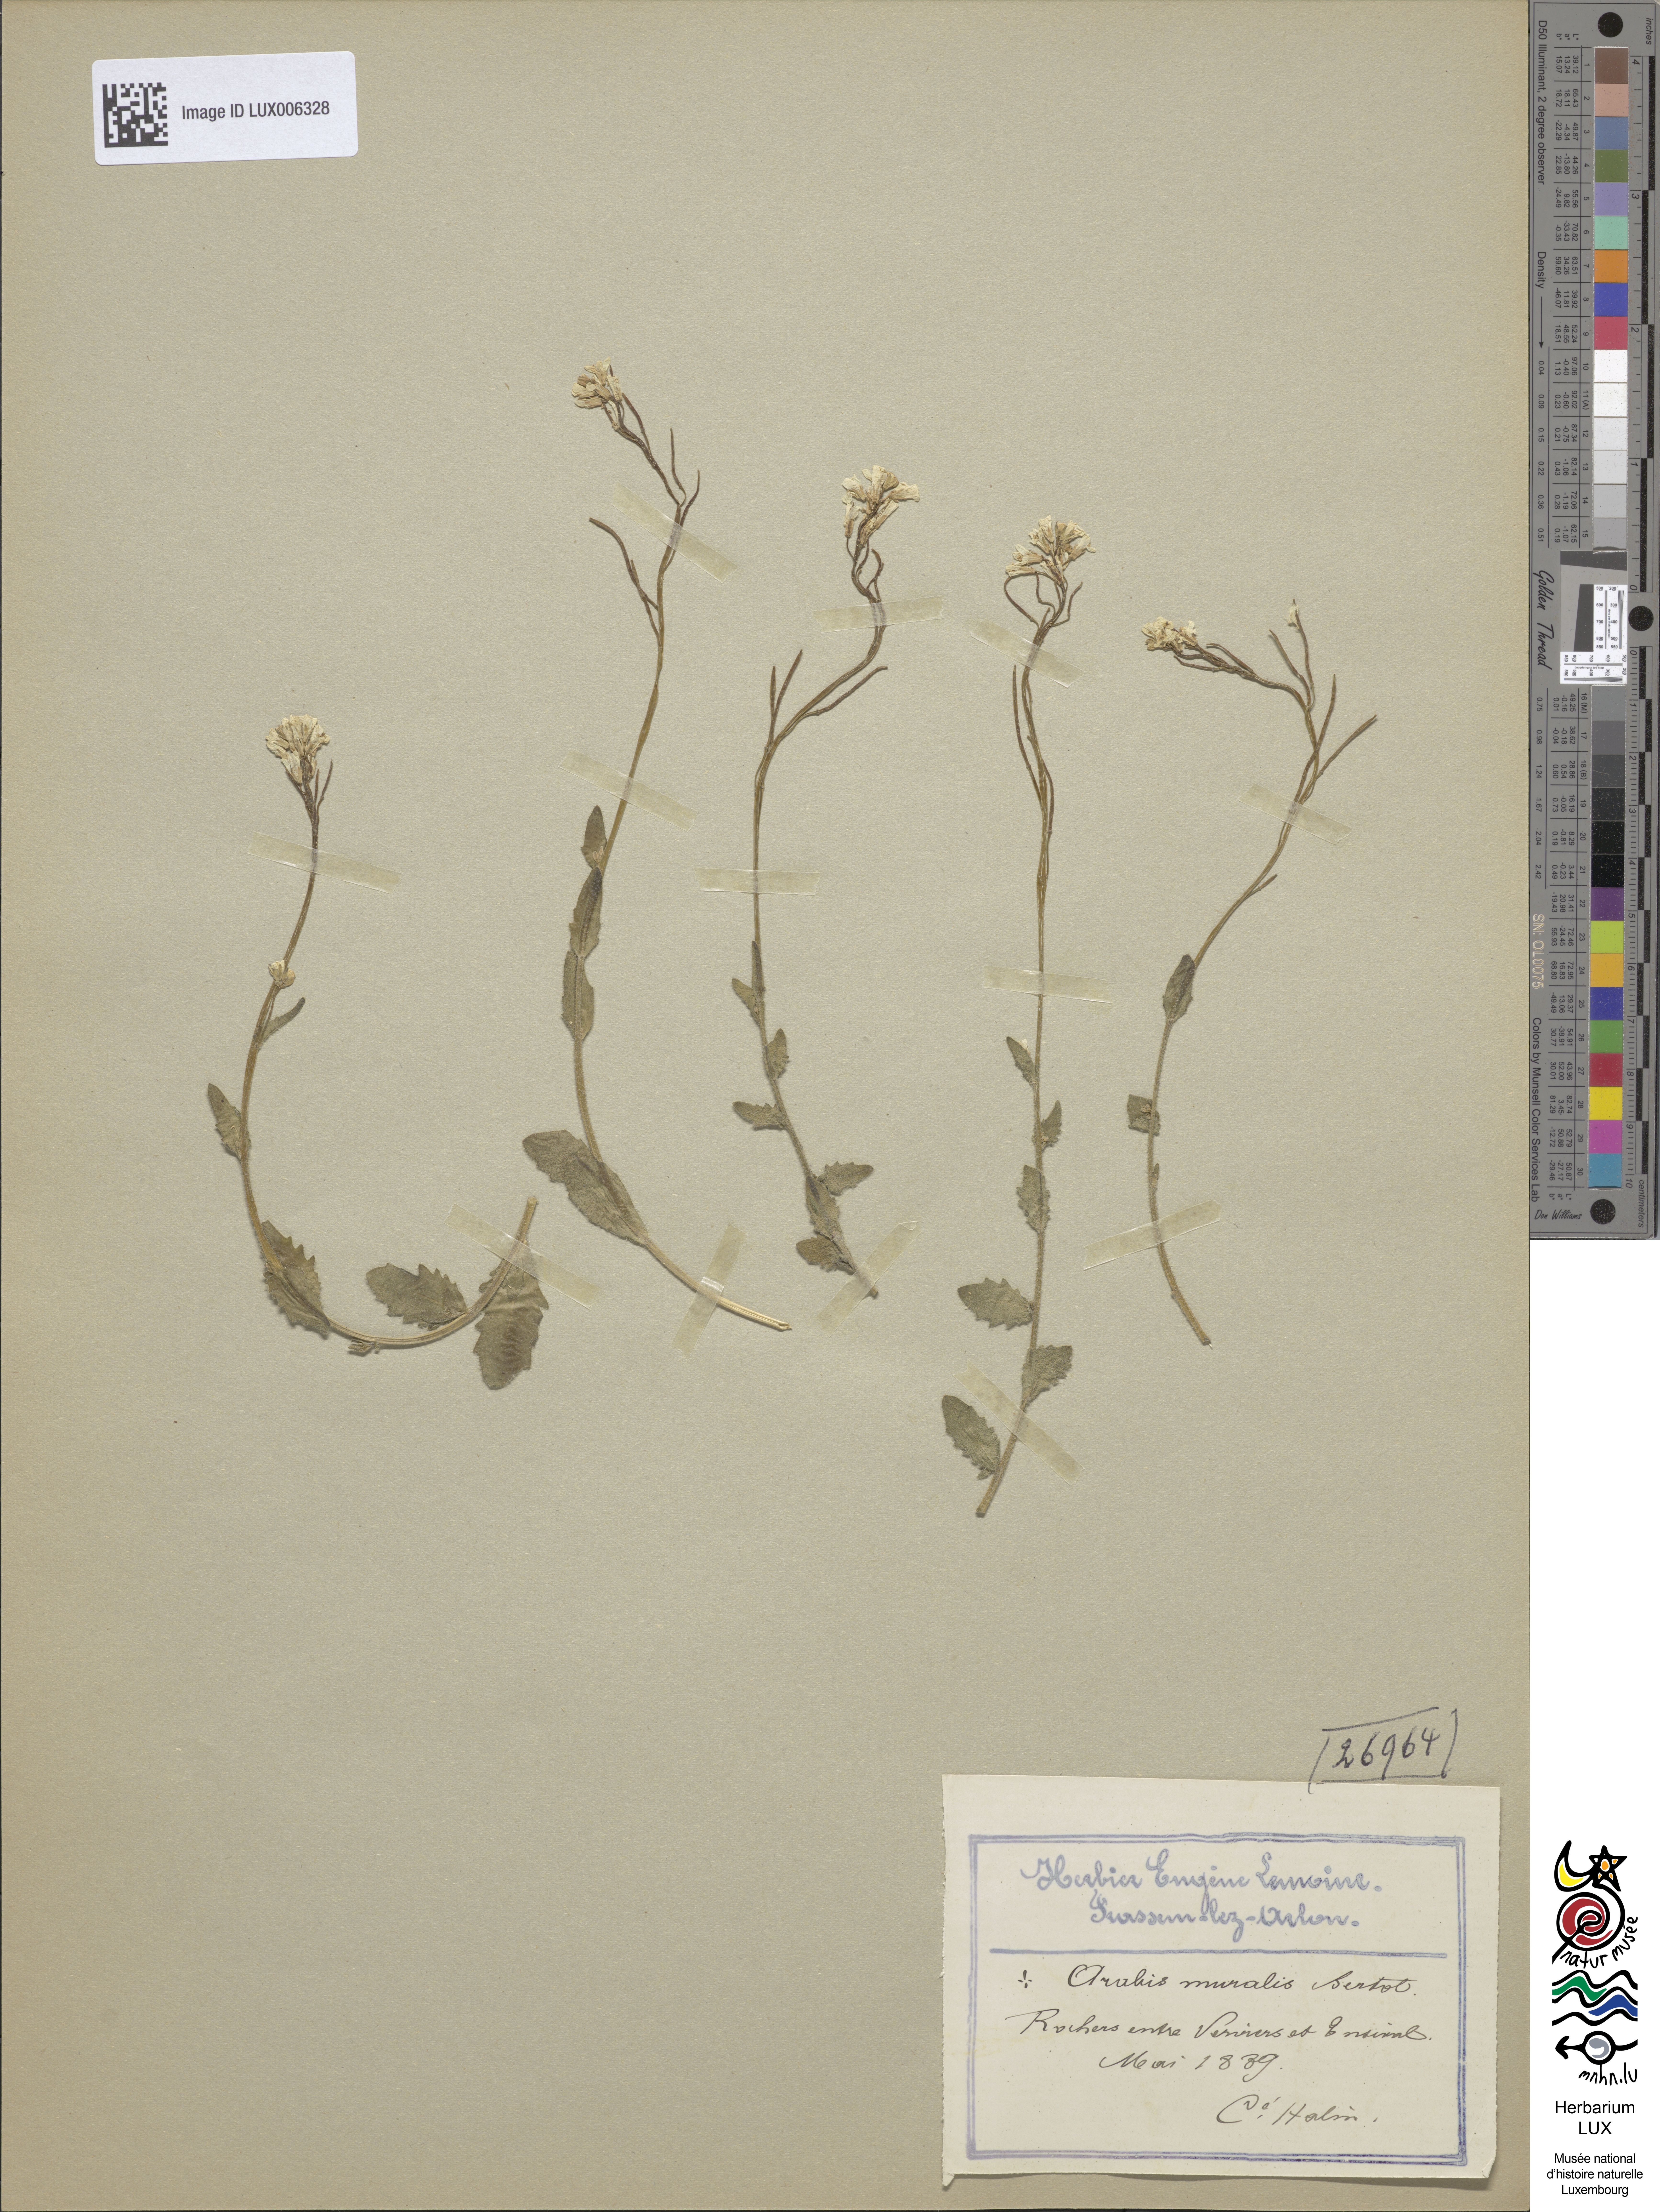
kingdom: Plantae
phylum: Tracheophyta
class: Magnoliopsida
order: Brassicales
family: Brassicaceae
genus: Arabis
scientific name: Arabis collina
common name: Rosy cress
